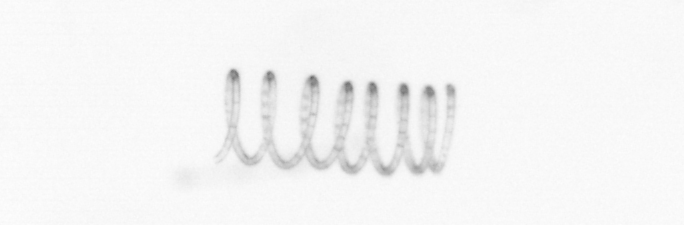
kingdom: Chromista
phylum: Ochrophyta
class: Bacillariophyceae
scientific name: Bacillariophyceae
